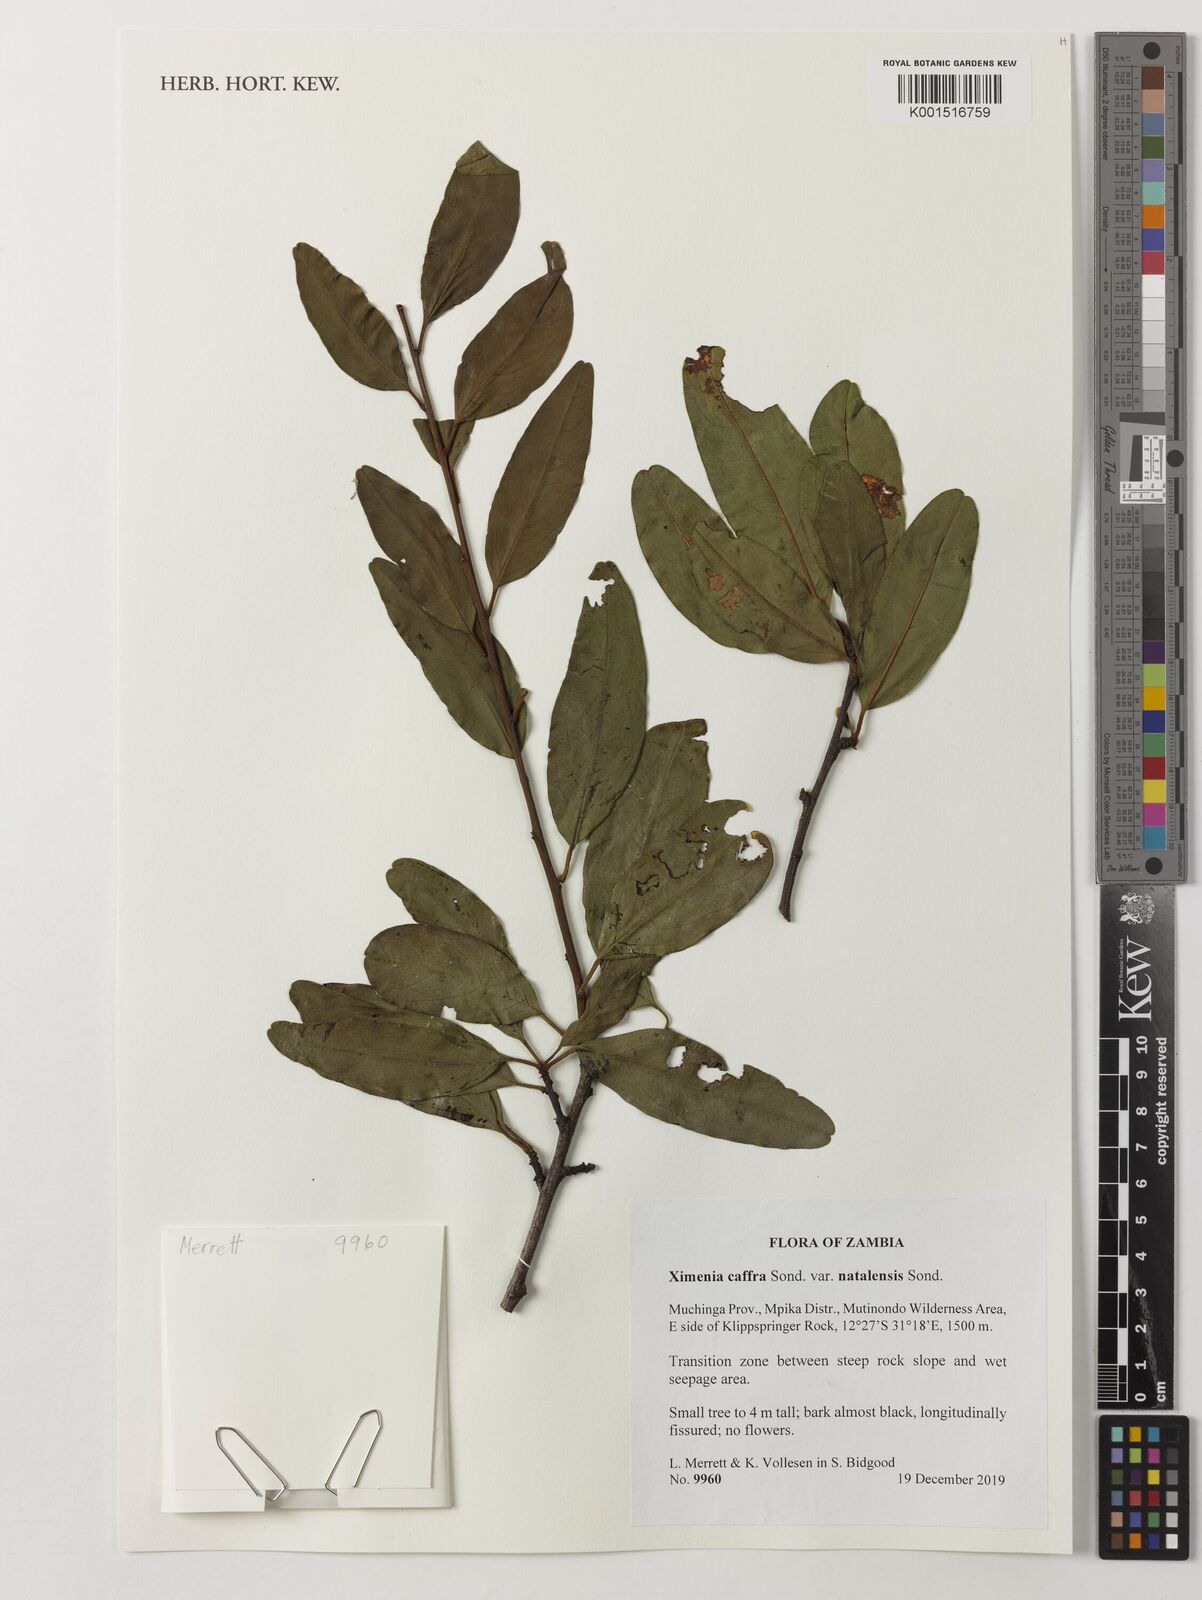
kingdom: Plantae
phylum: Tracheophyta
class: Magnoliopsida
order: Santalales
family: Ximeniaceae
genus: Ximenia
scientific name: Ximenia caffra
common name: Large sourplum
